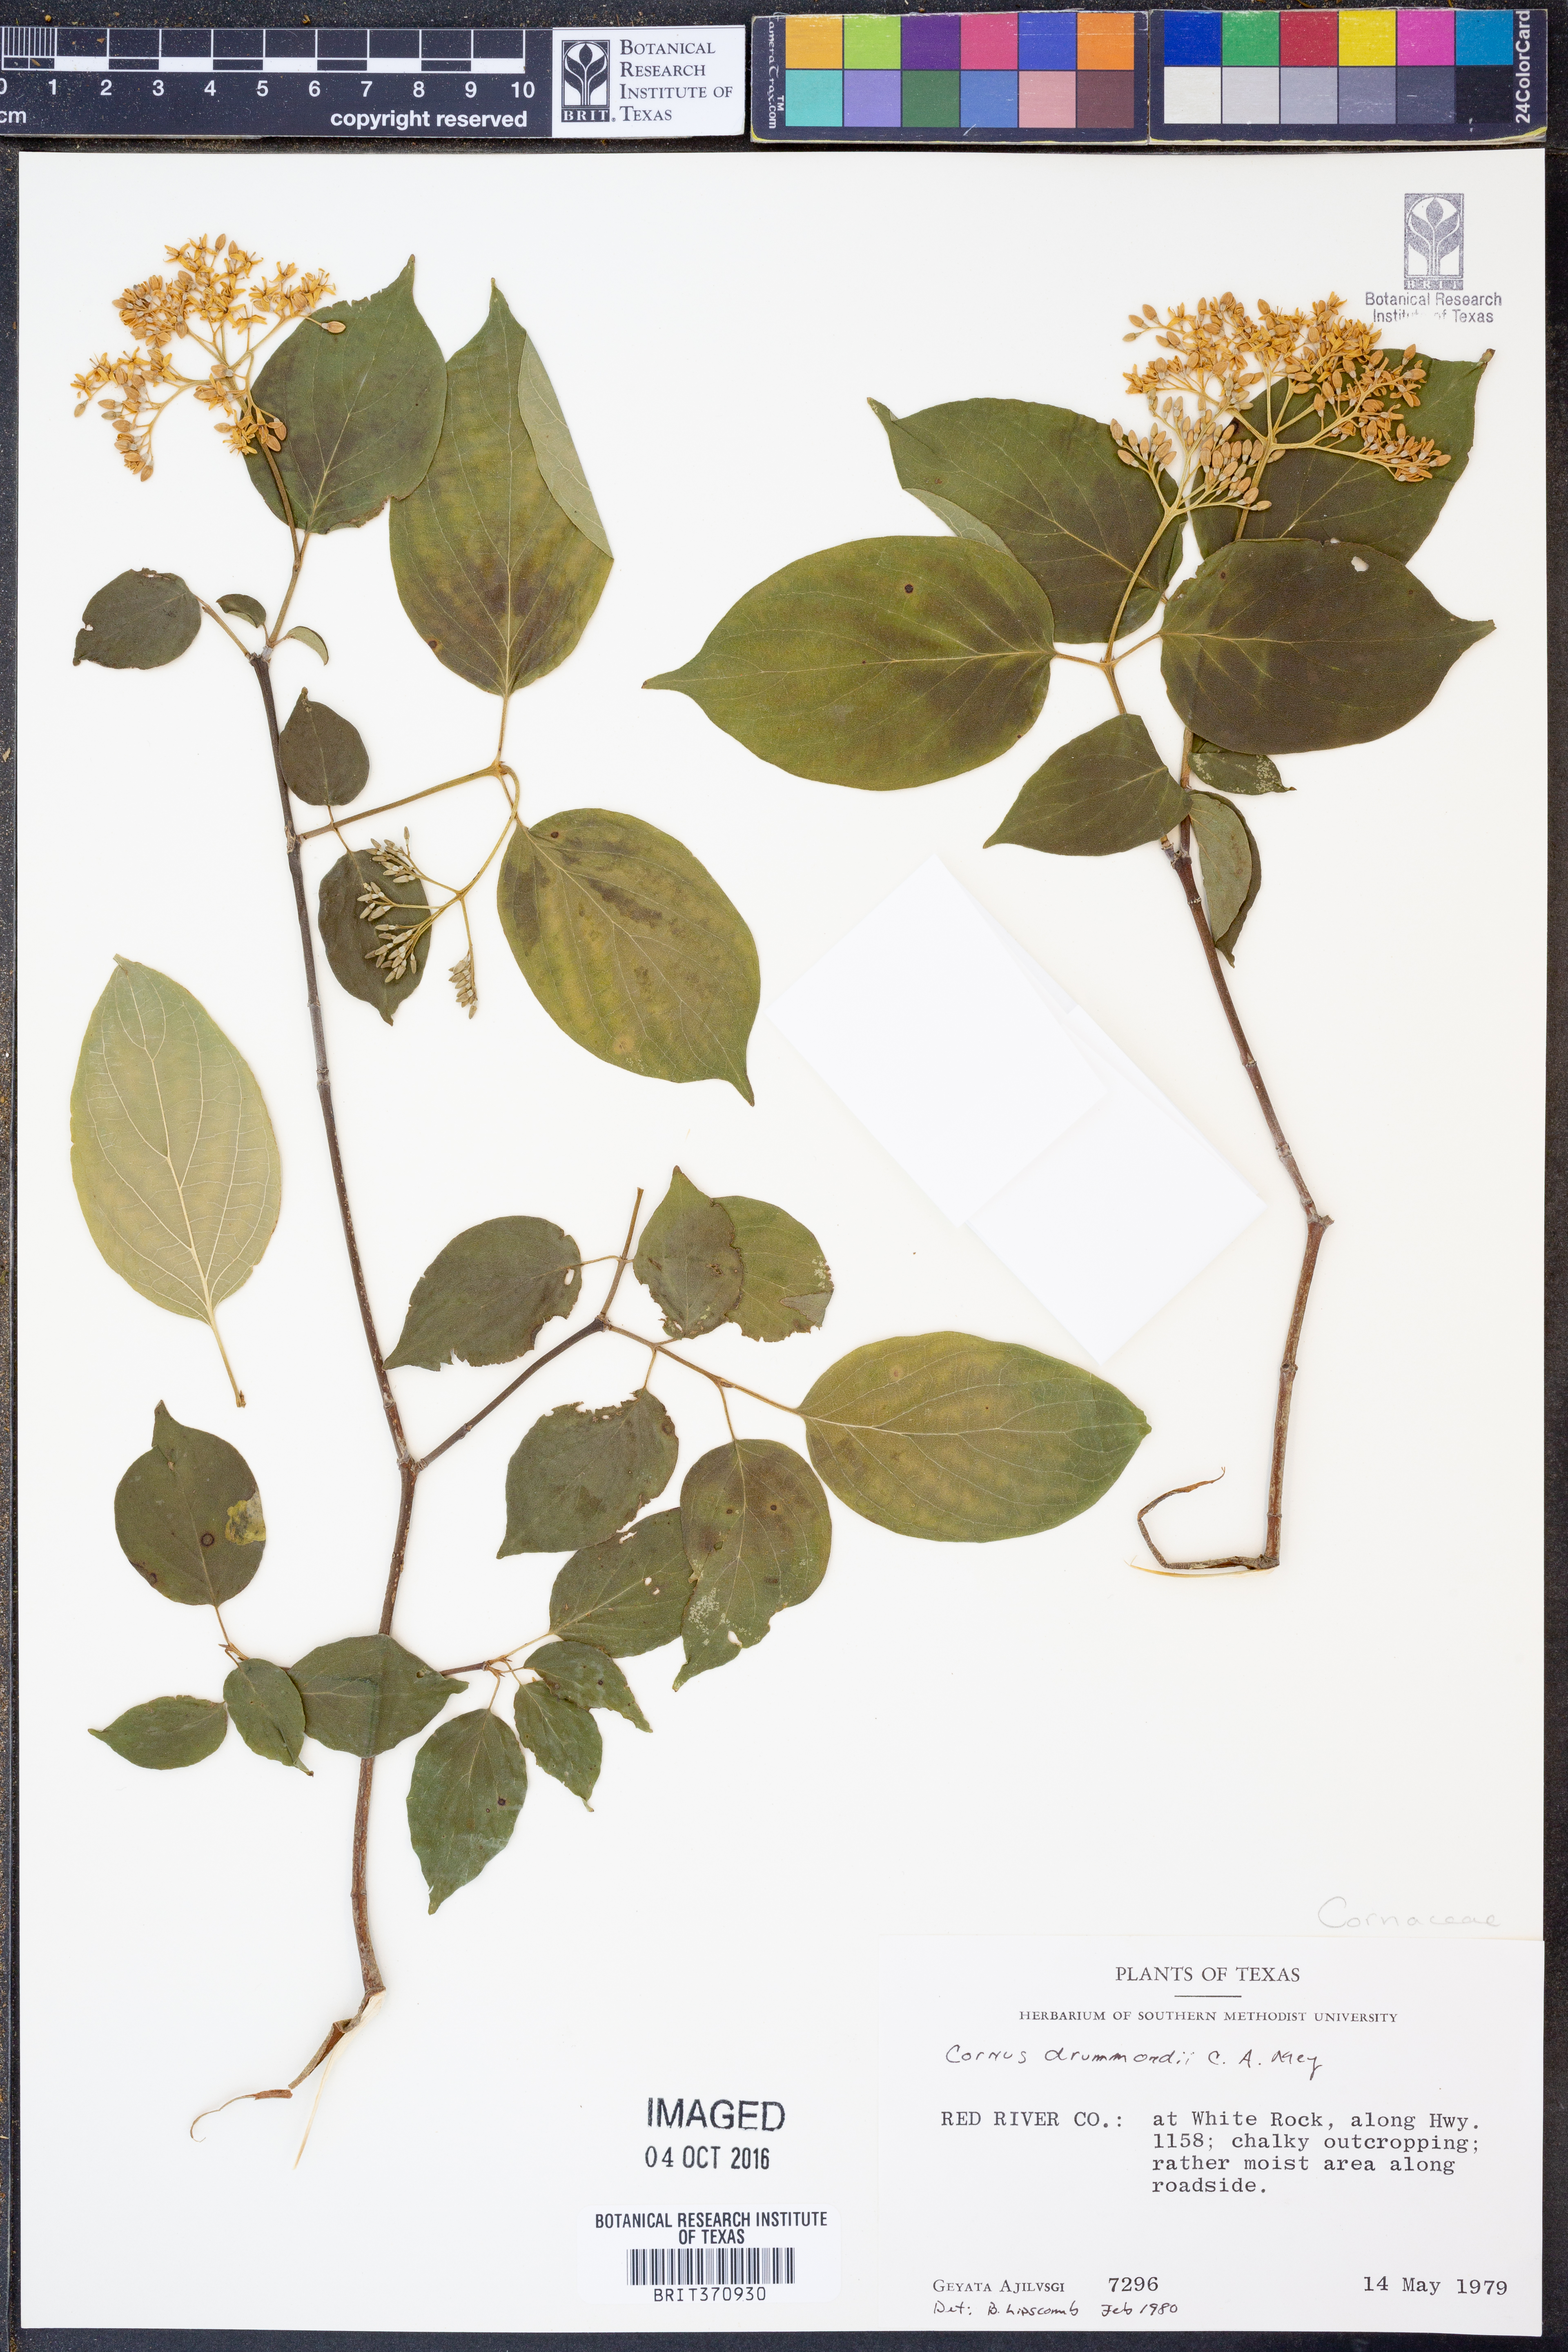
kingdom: Plantae
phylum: Tracheophyta
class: Magnoliopsida
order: Cornales
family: Cornaceae
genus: Cornus
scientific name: Cornus drummondii
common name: Rough-leaf dogwood
